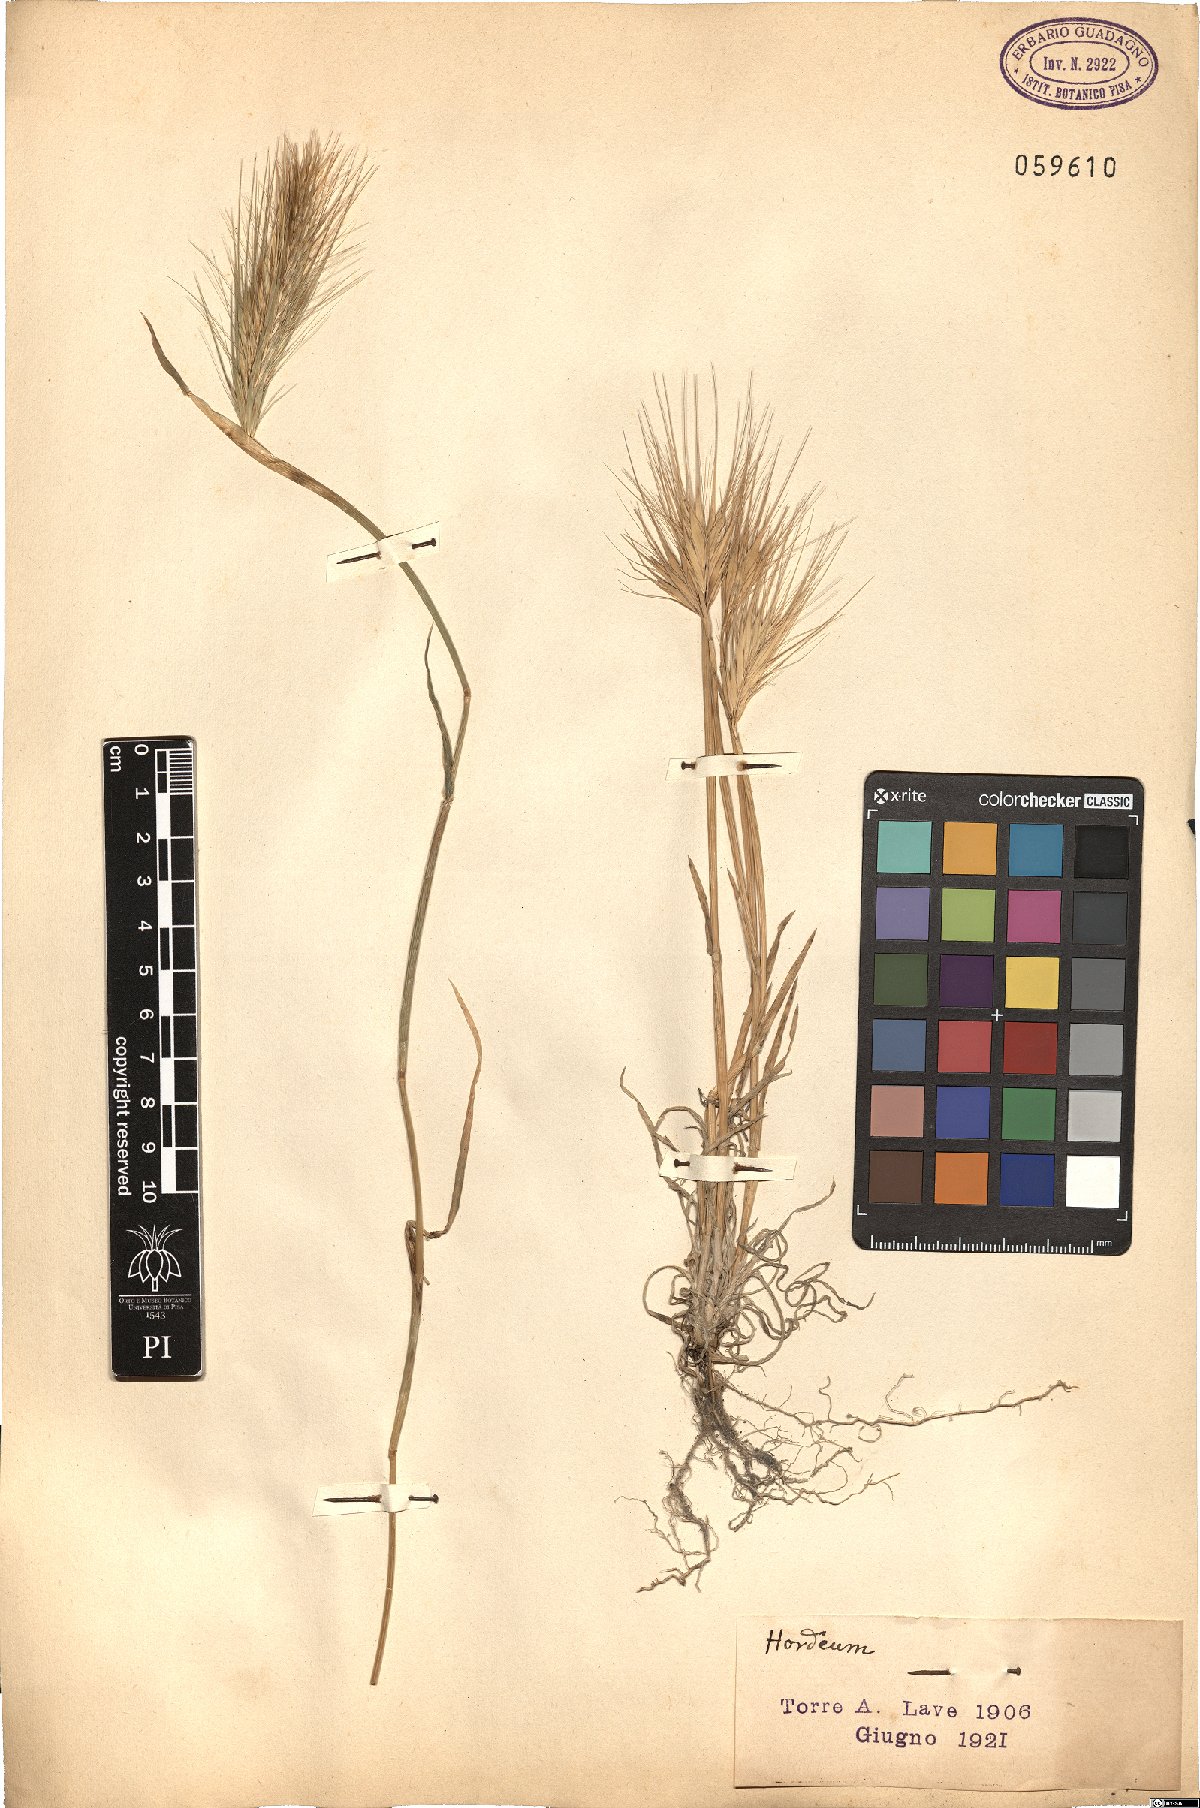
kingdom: Plantae
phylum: Tracheophyta
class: Liliopsida
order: Poales
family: Poaceae
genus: Hordeum
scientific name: Hordeum
